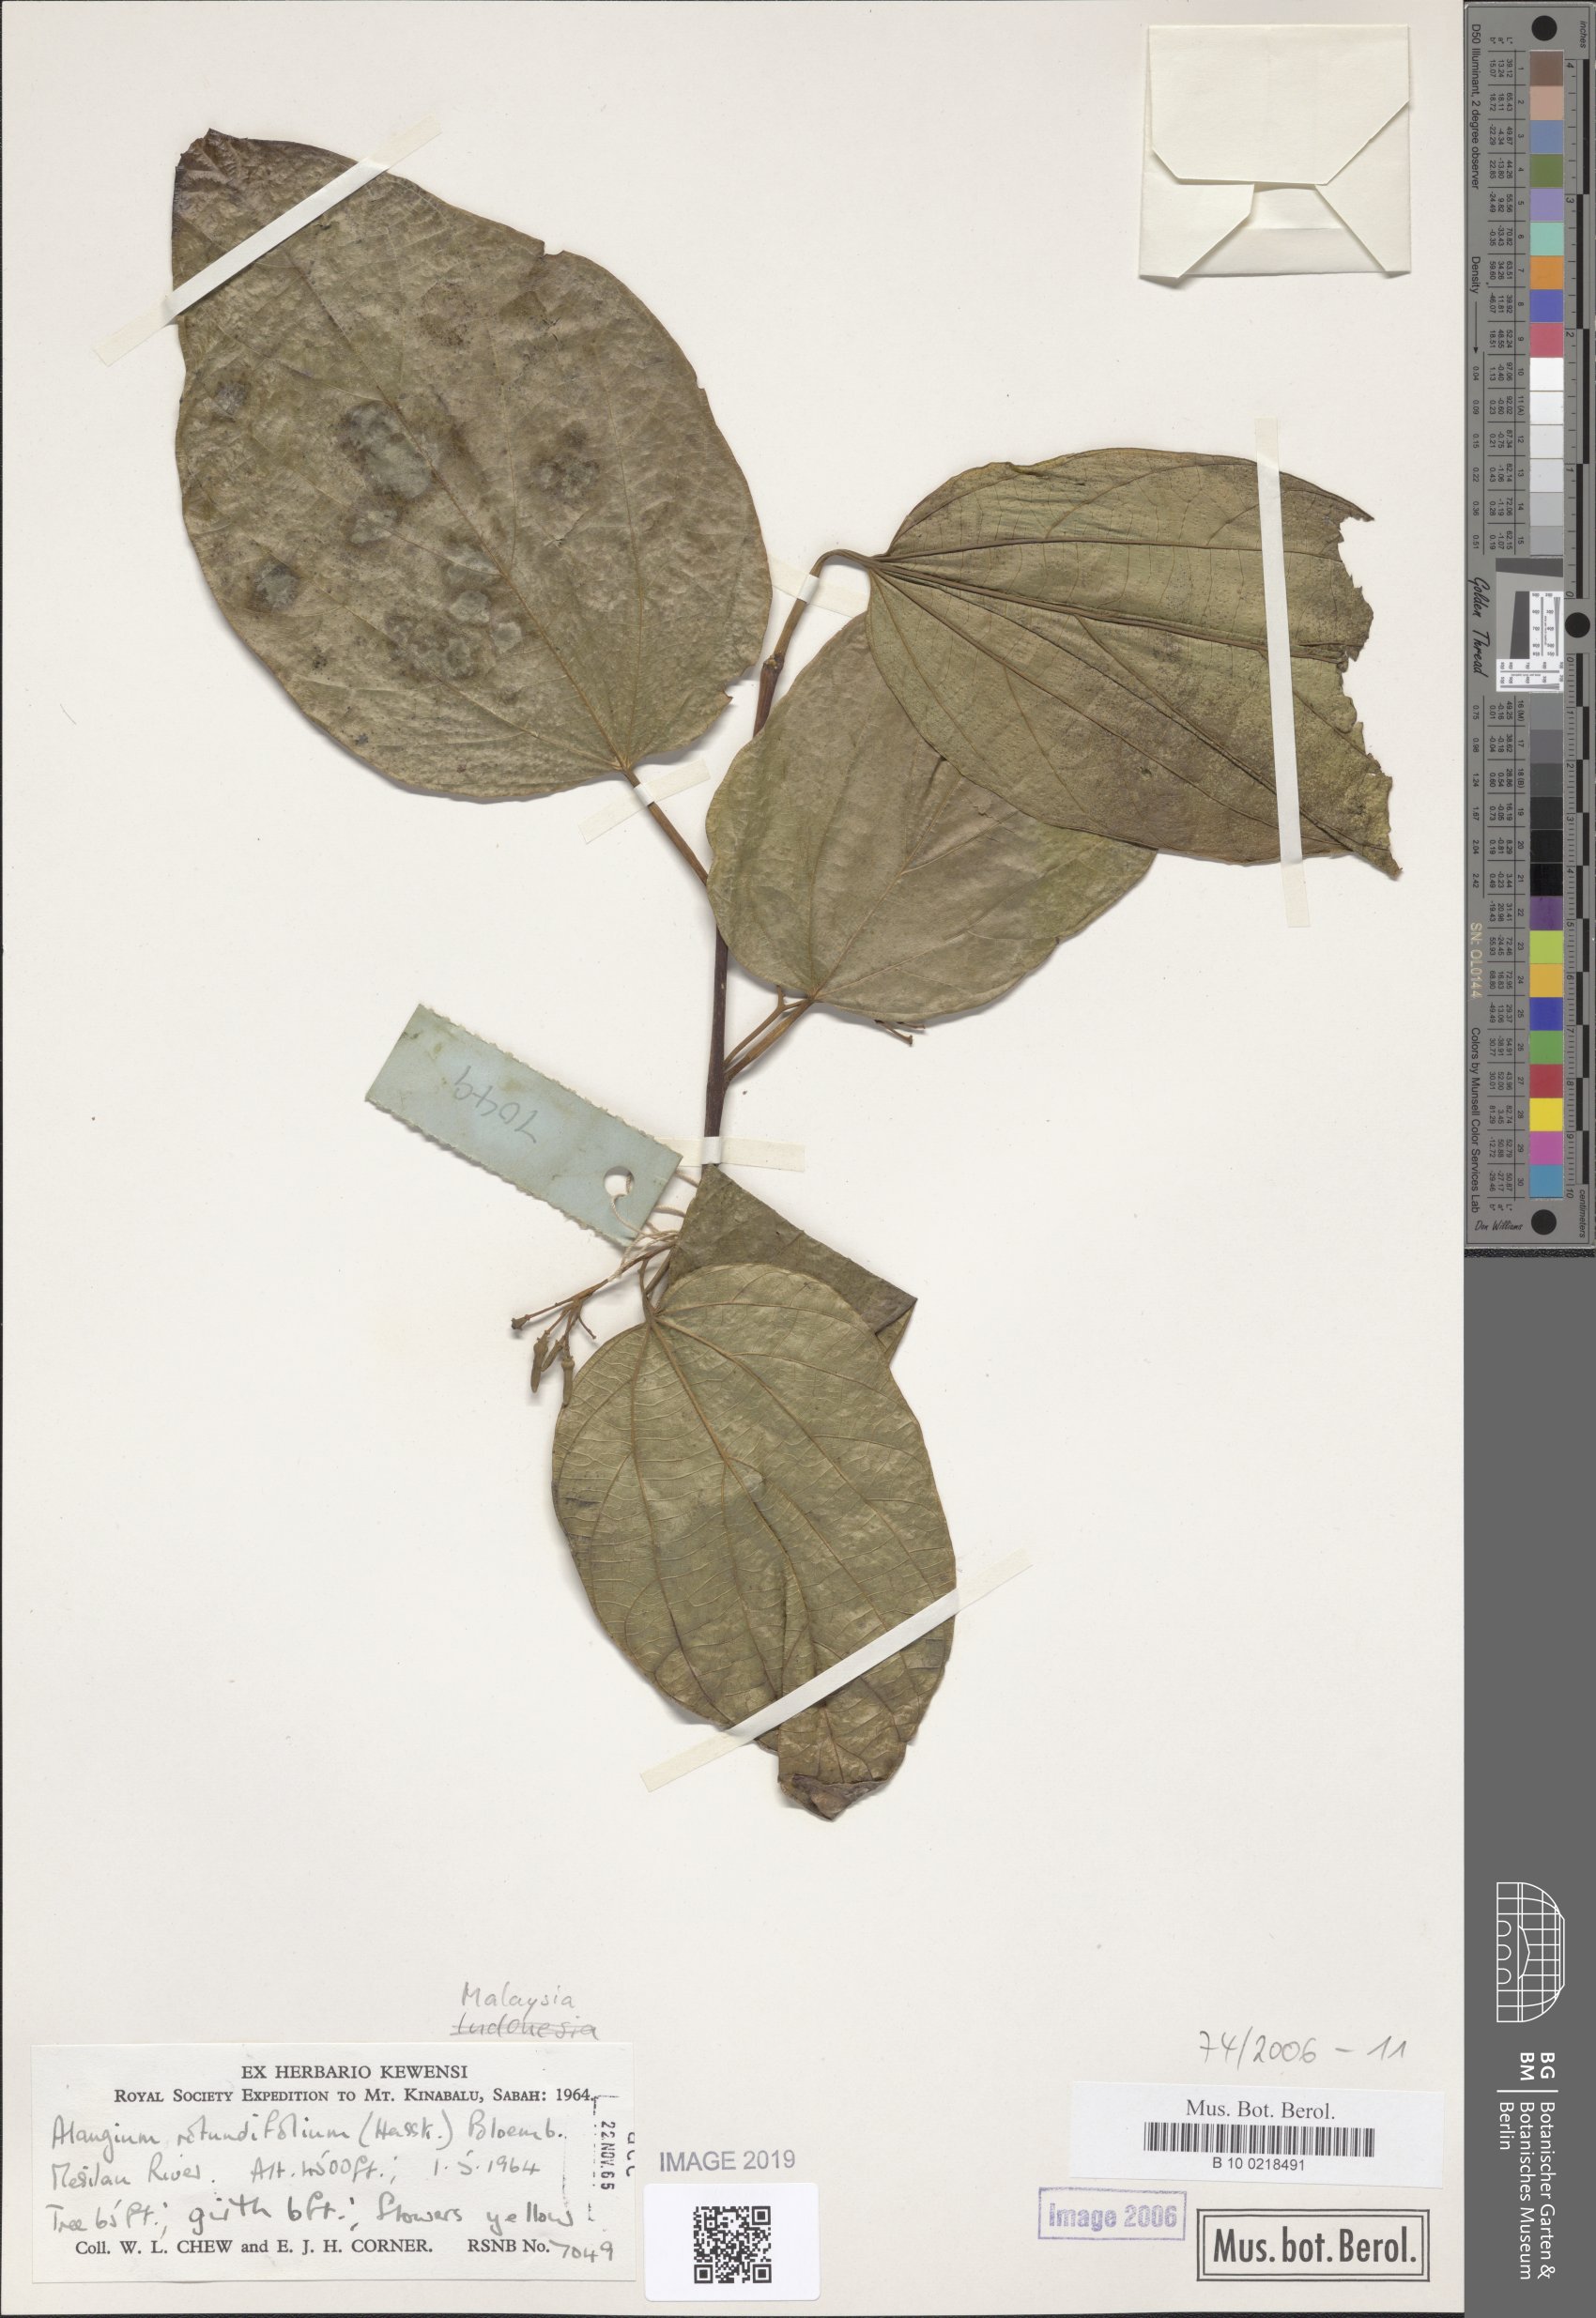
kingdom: Plantae
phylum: Tracheophyta
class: Magnoliopsida
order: Cornales
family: Cornaceae
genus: Alangium
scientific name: Alangium rotundifolium
